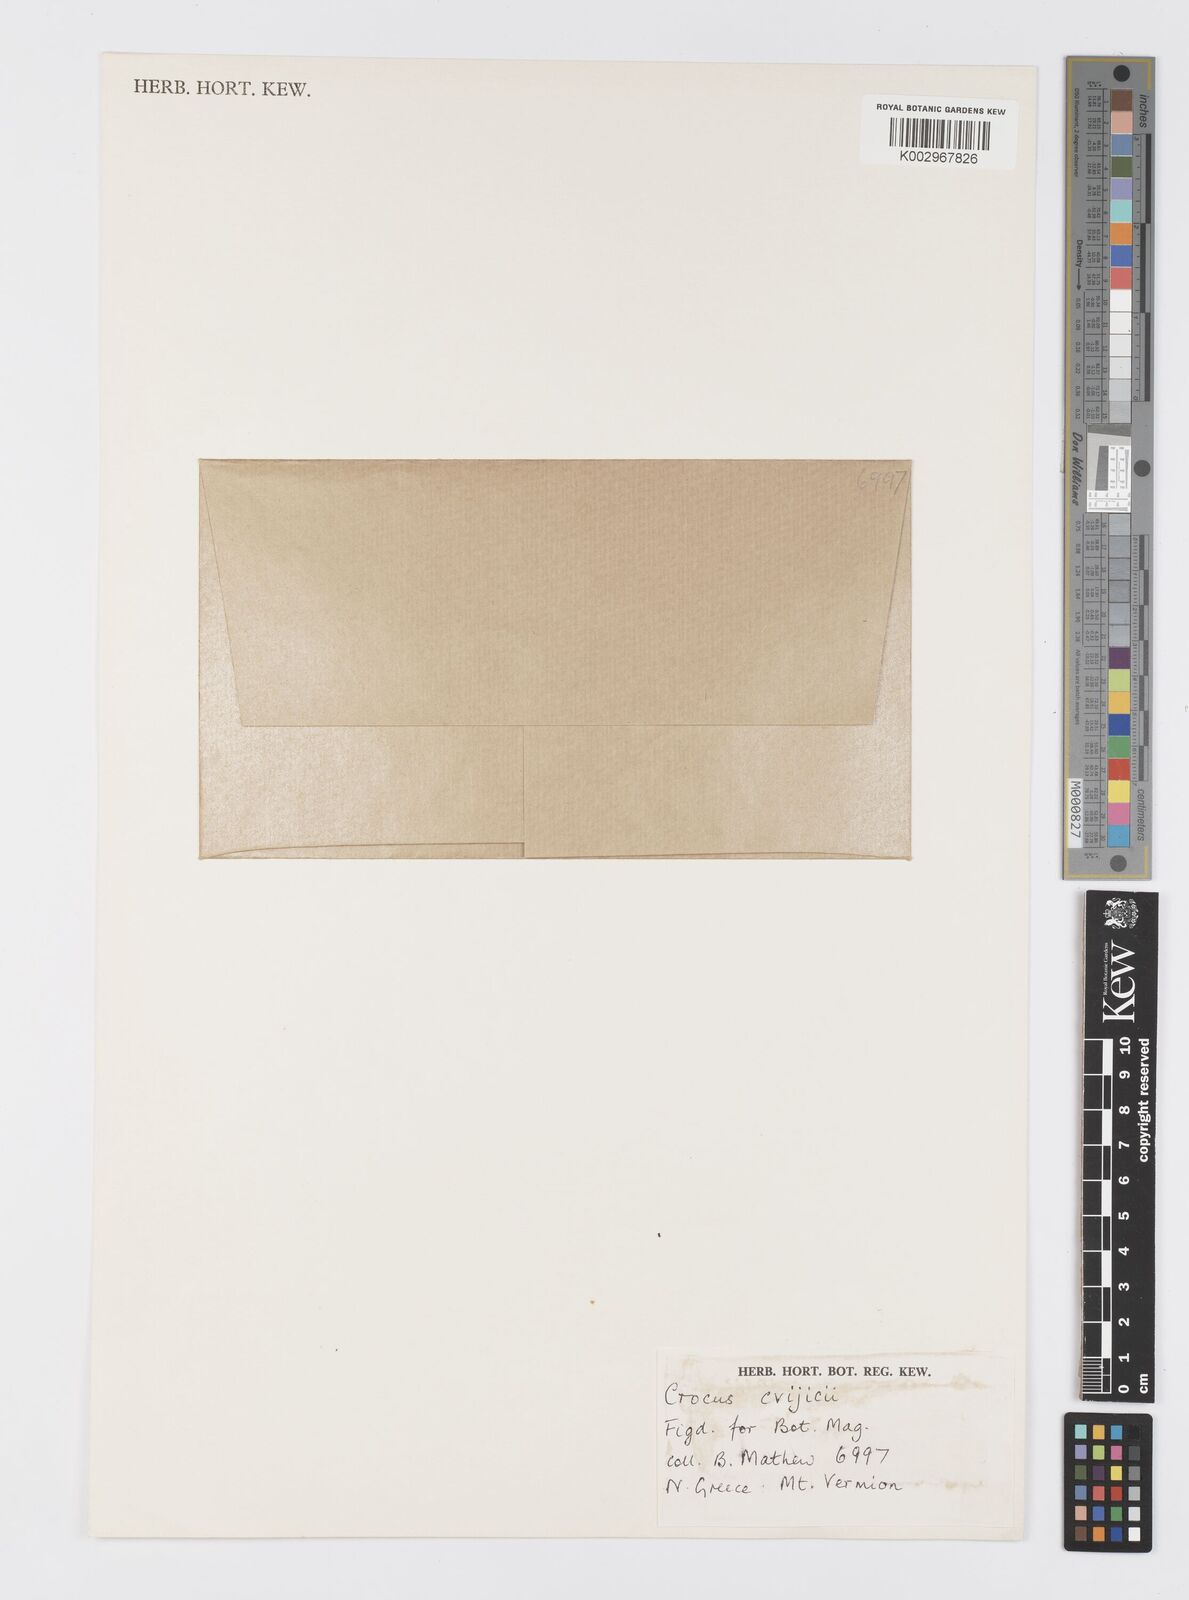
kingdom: Plantae
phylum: Tracheophyta
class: Liliopsida
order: Asparagales
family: Iridaceae
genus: Crocus
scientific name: Crocus cvijicii
